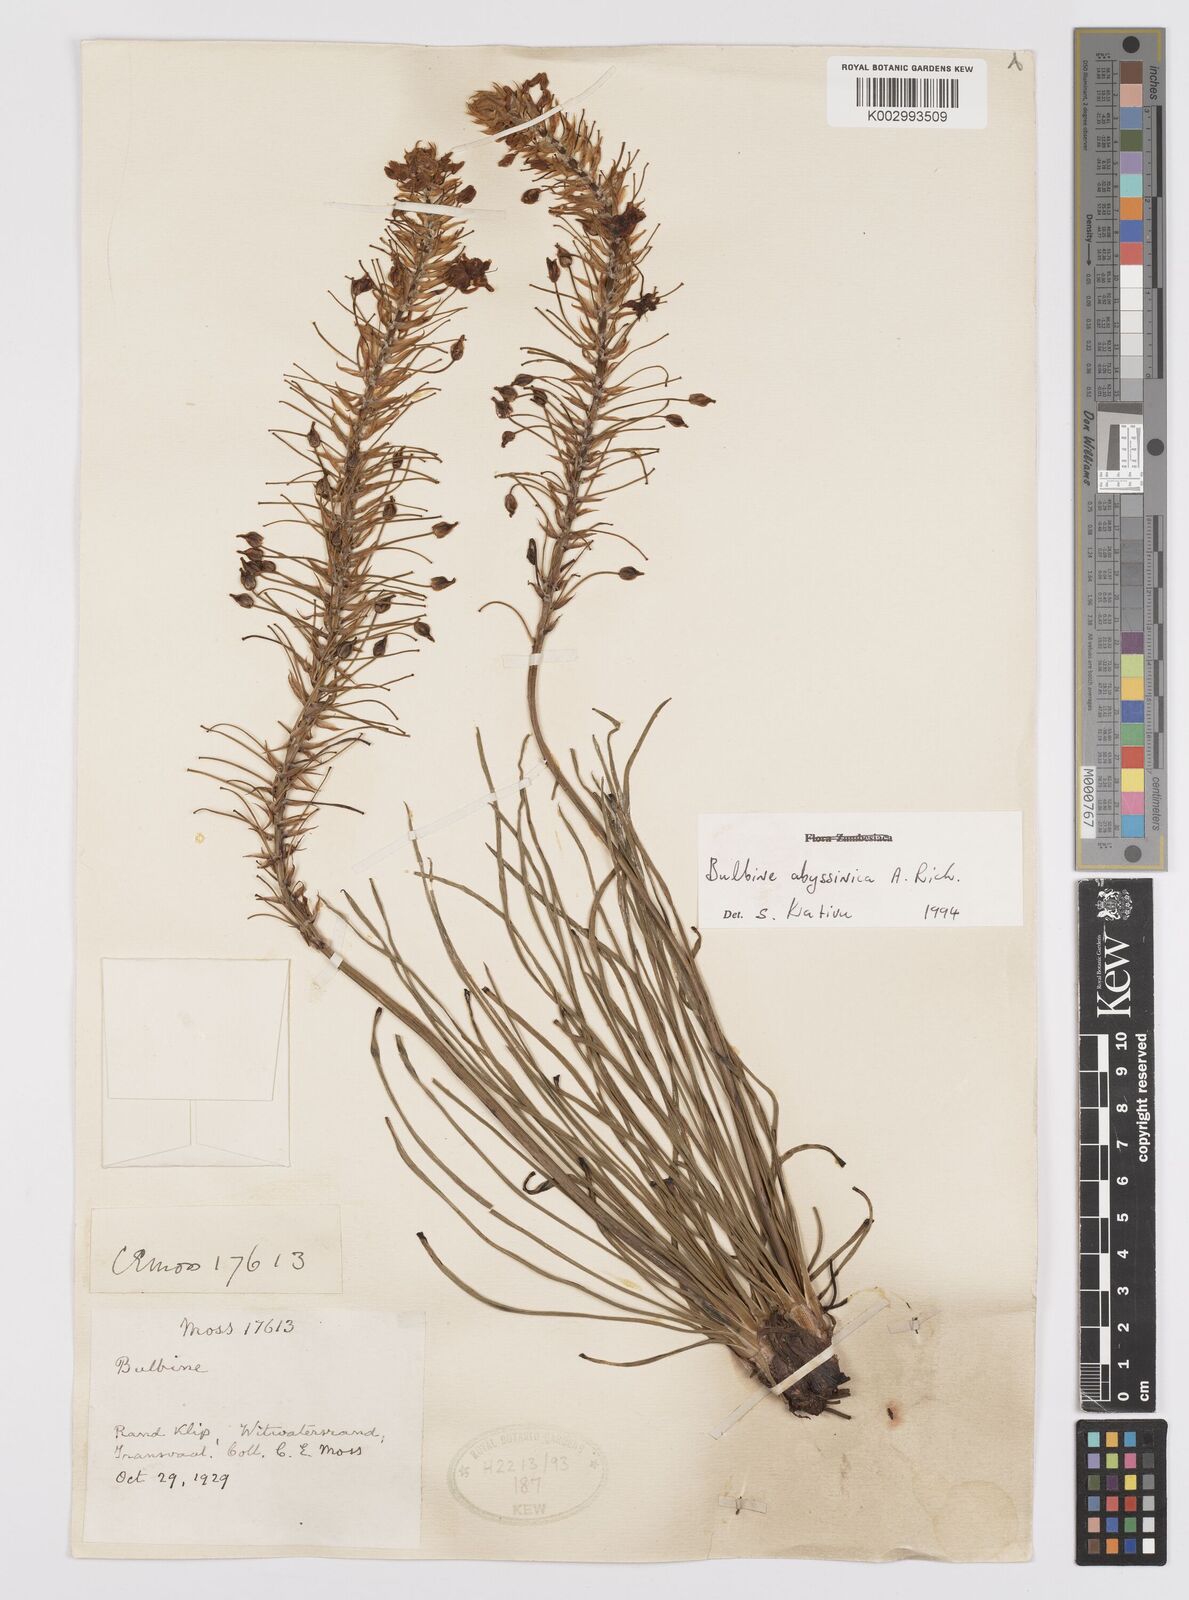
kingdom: Plantae
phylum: Tracheophyta
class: Liliopsida
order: Asparagales
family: Asphodelaceae
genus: Bulbine
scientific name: Bulbine abyssinica
